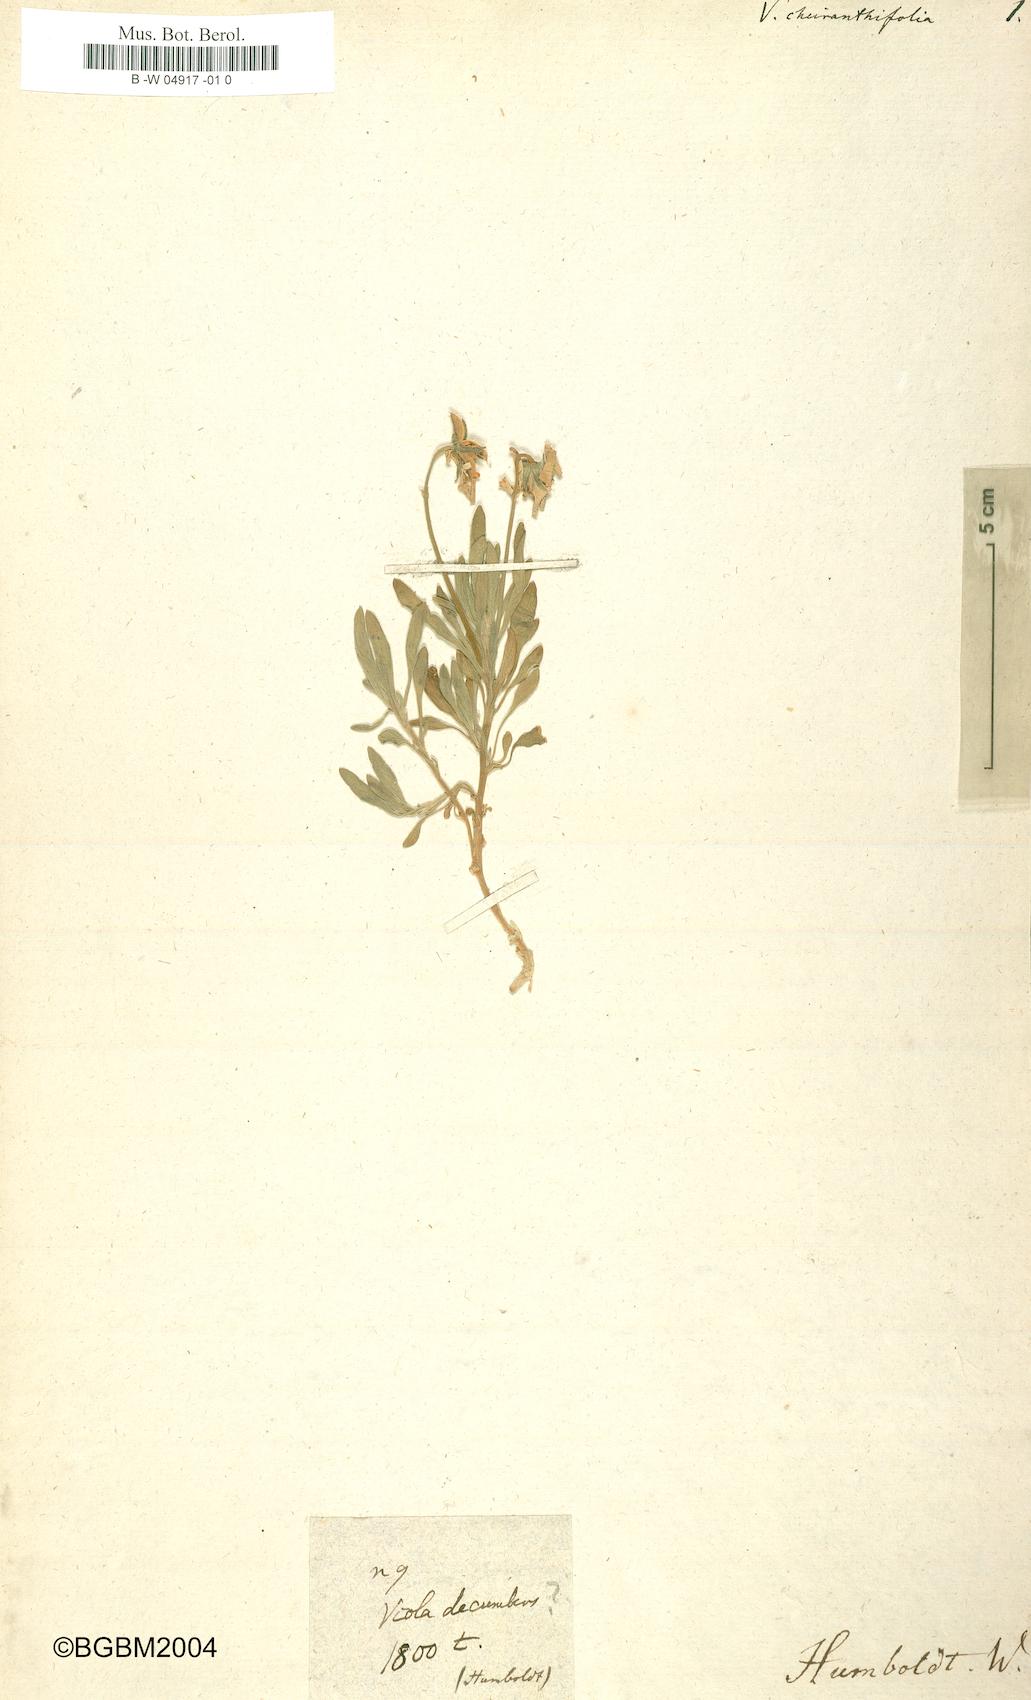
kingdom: Plantae
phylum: Tracheophyta
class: Magnoliopsida
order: Malpighiales
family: Violaceae
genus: Viola
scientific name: Viola cheiranthifolia
